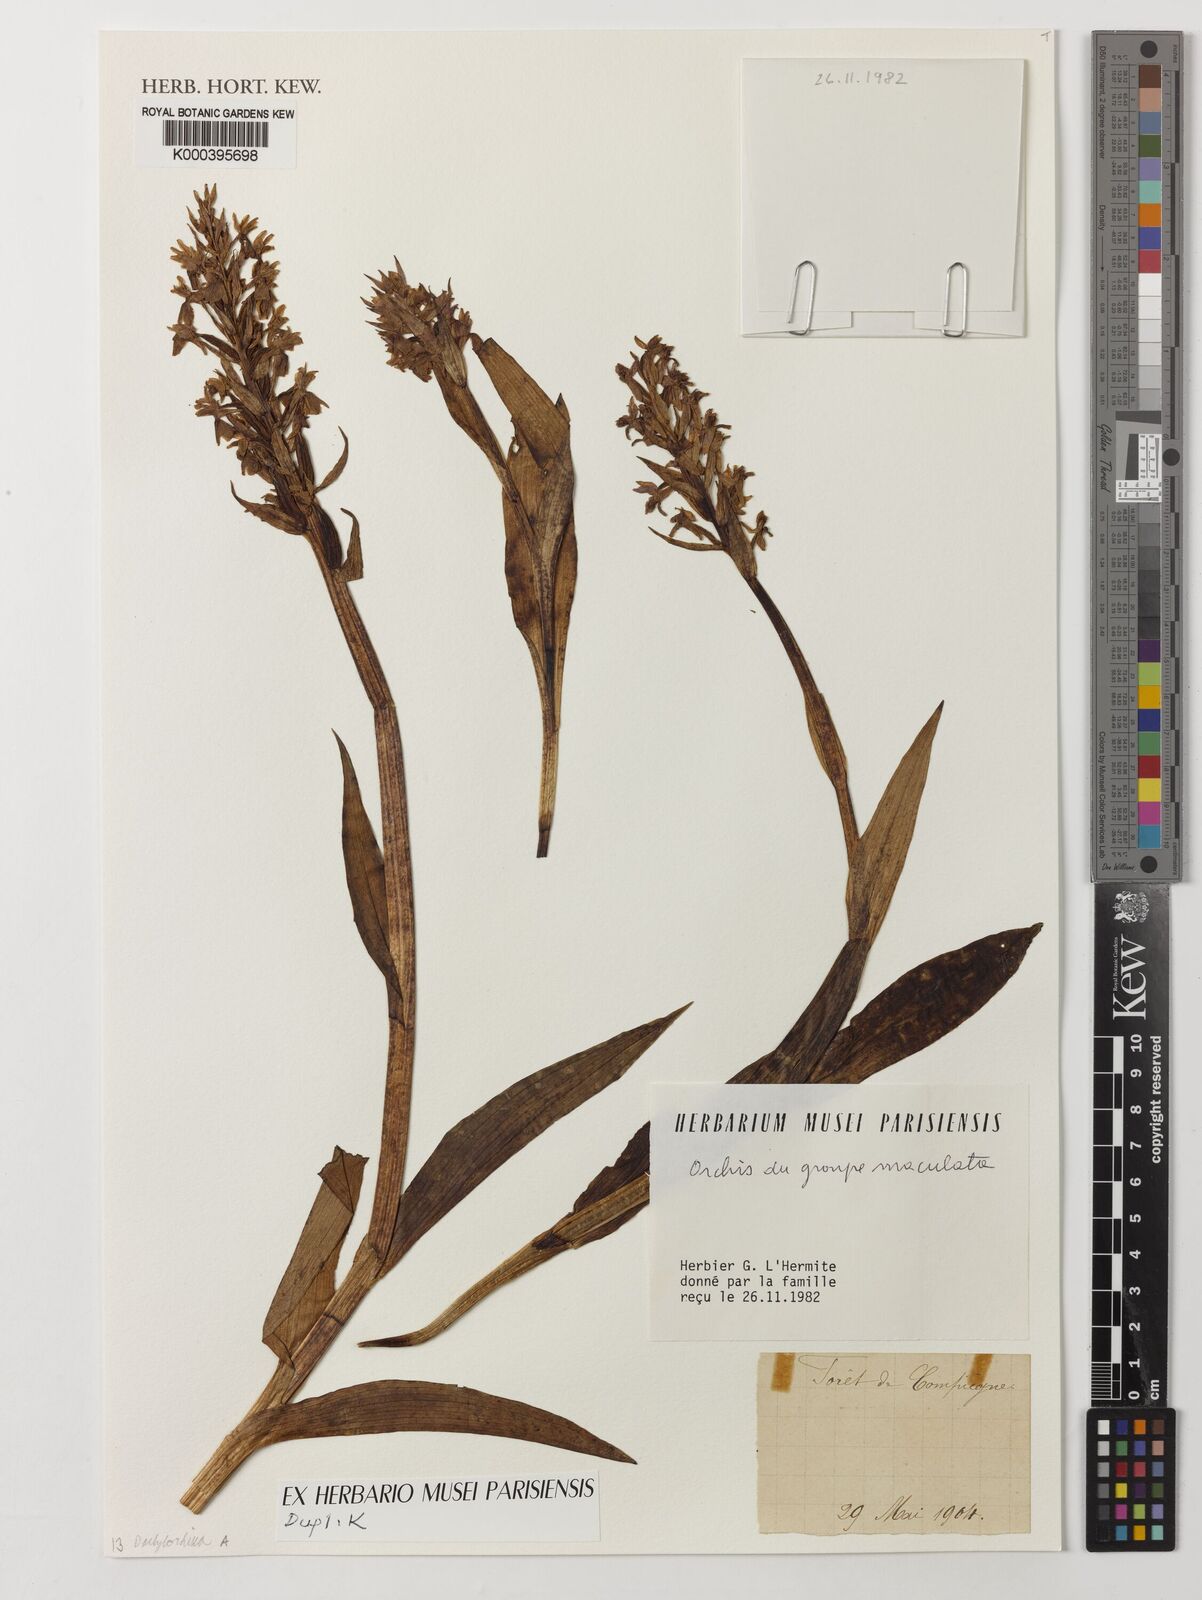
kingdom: Plantae
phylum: Tracheophyta
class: Liliopsida
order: Asparagales
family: Orchidaceae
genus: Orchis
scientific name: Orchis
